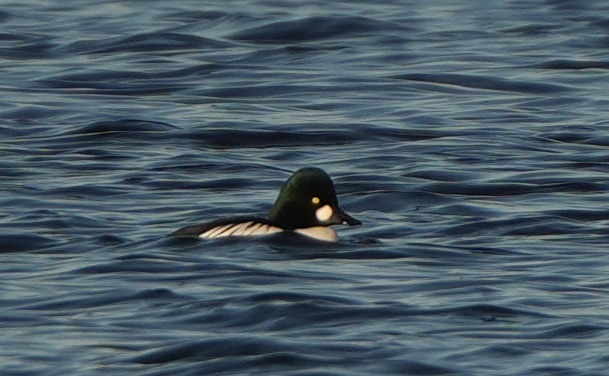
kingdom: Animalia
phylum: Chordata
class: Aves
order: Anseriformes
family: Anatidae
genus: Bucephala
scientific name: Bucephala clangula
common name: Hvinand
